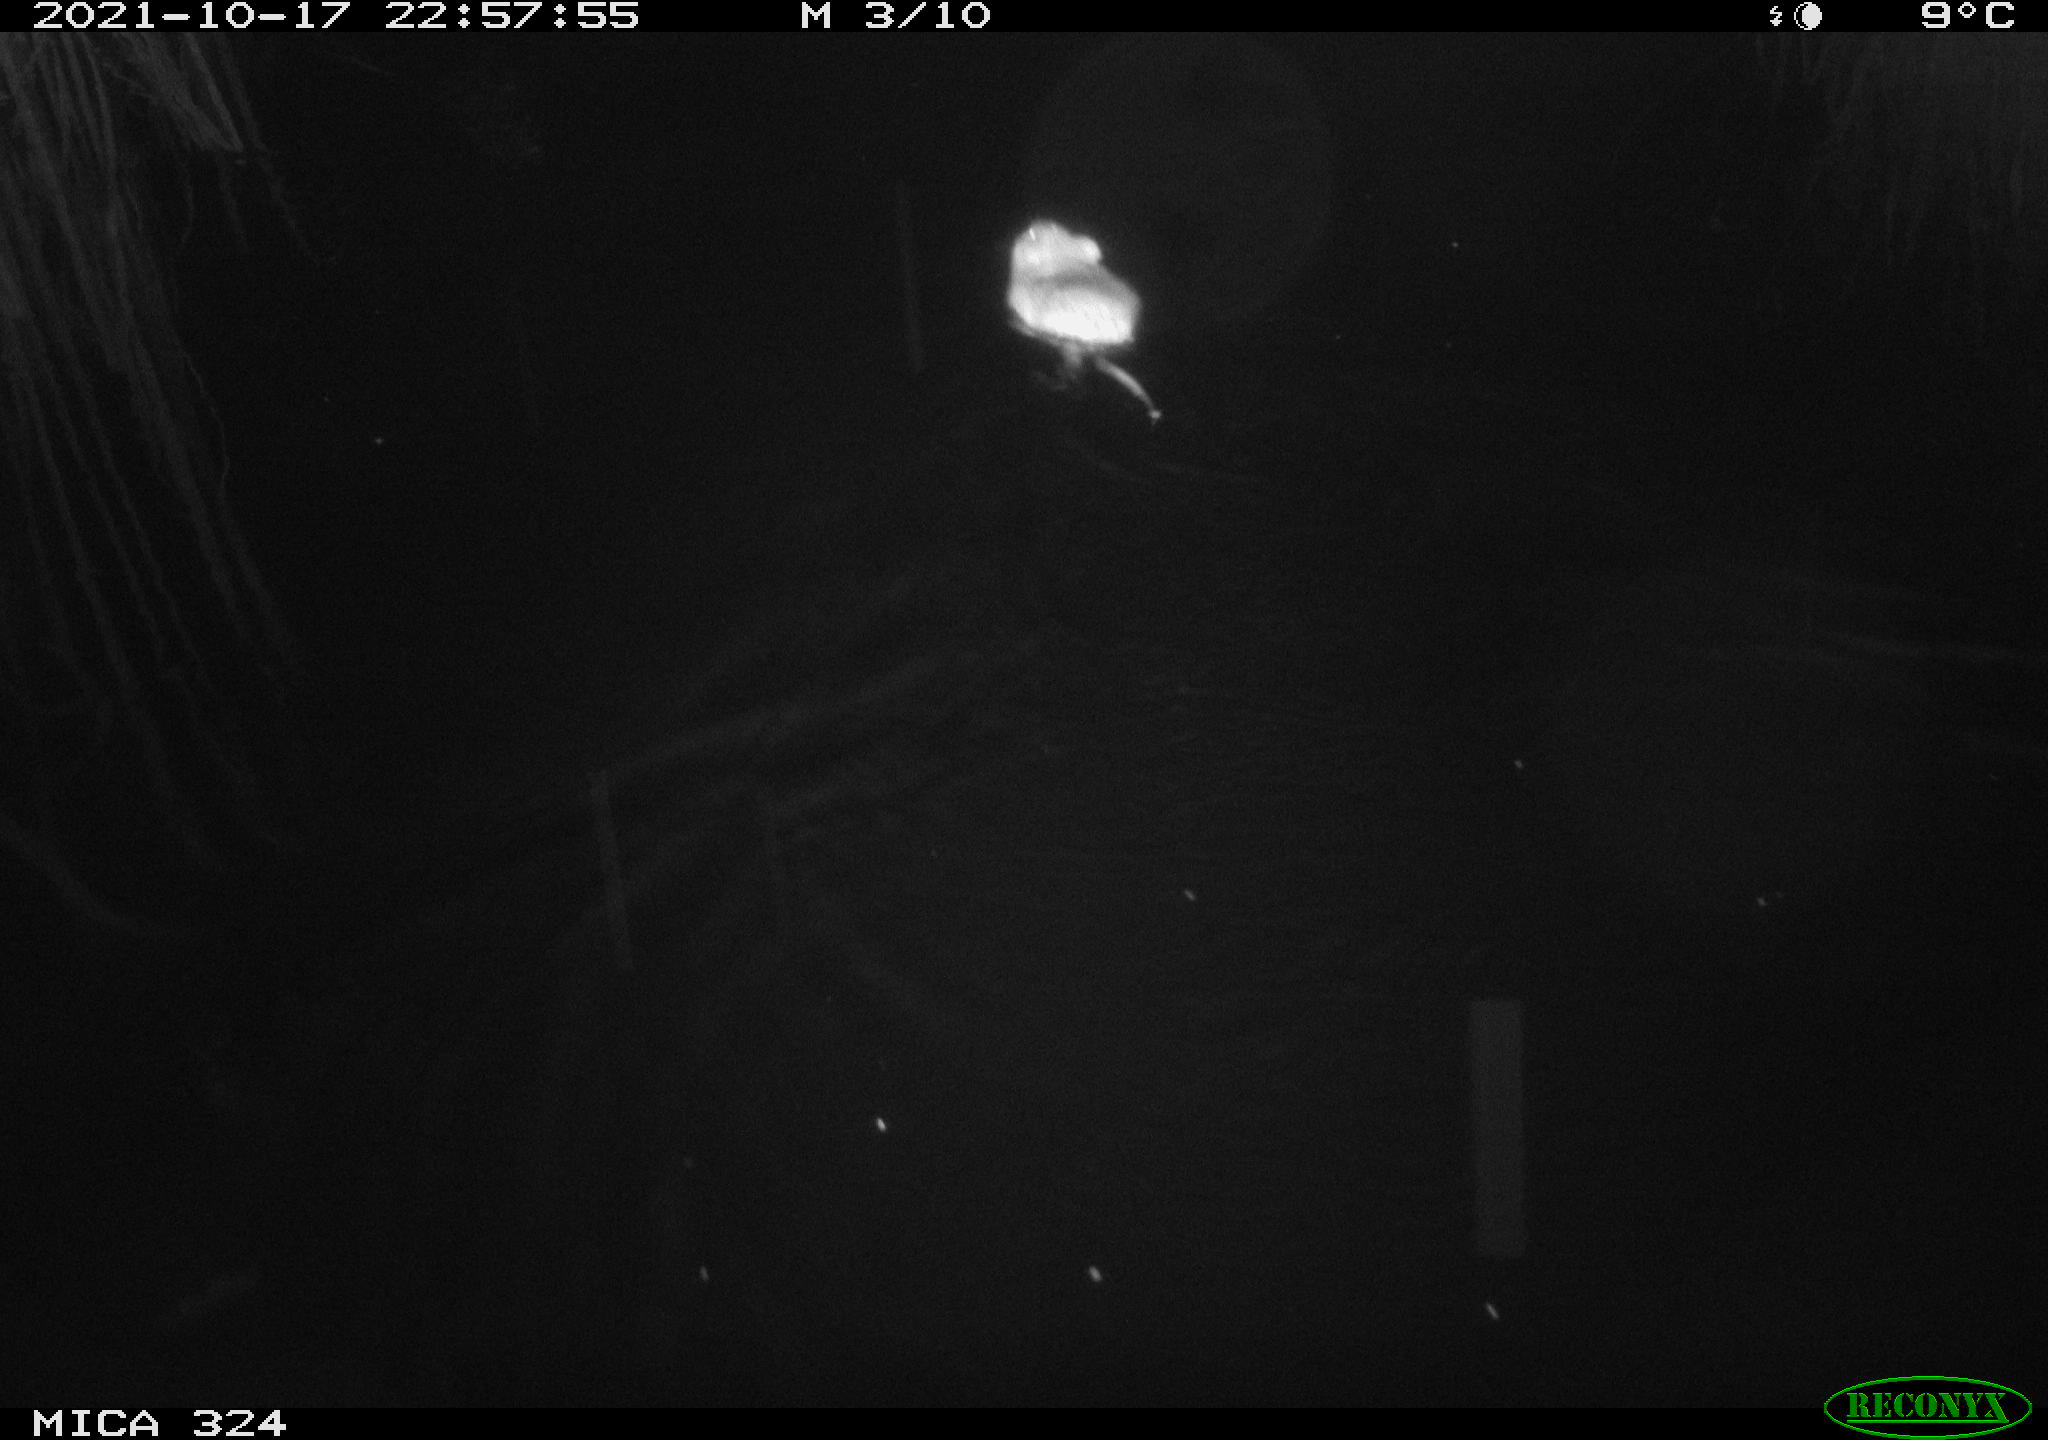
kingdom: Animalia
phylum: Chordata
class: Mammalia
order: Rodentia
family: Cricetidae
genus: Ondatra
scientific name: Ondatra zibethicus
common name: Muskrat
